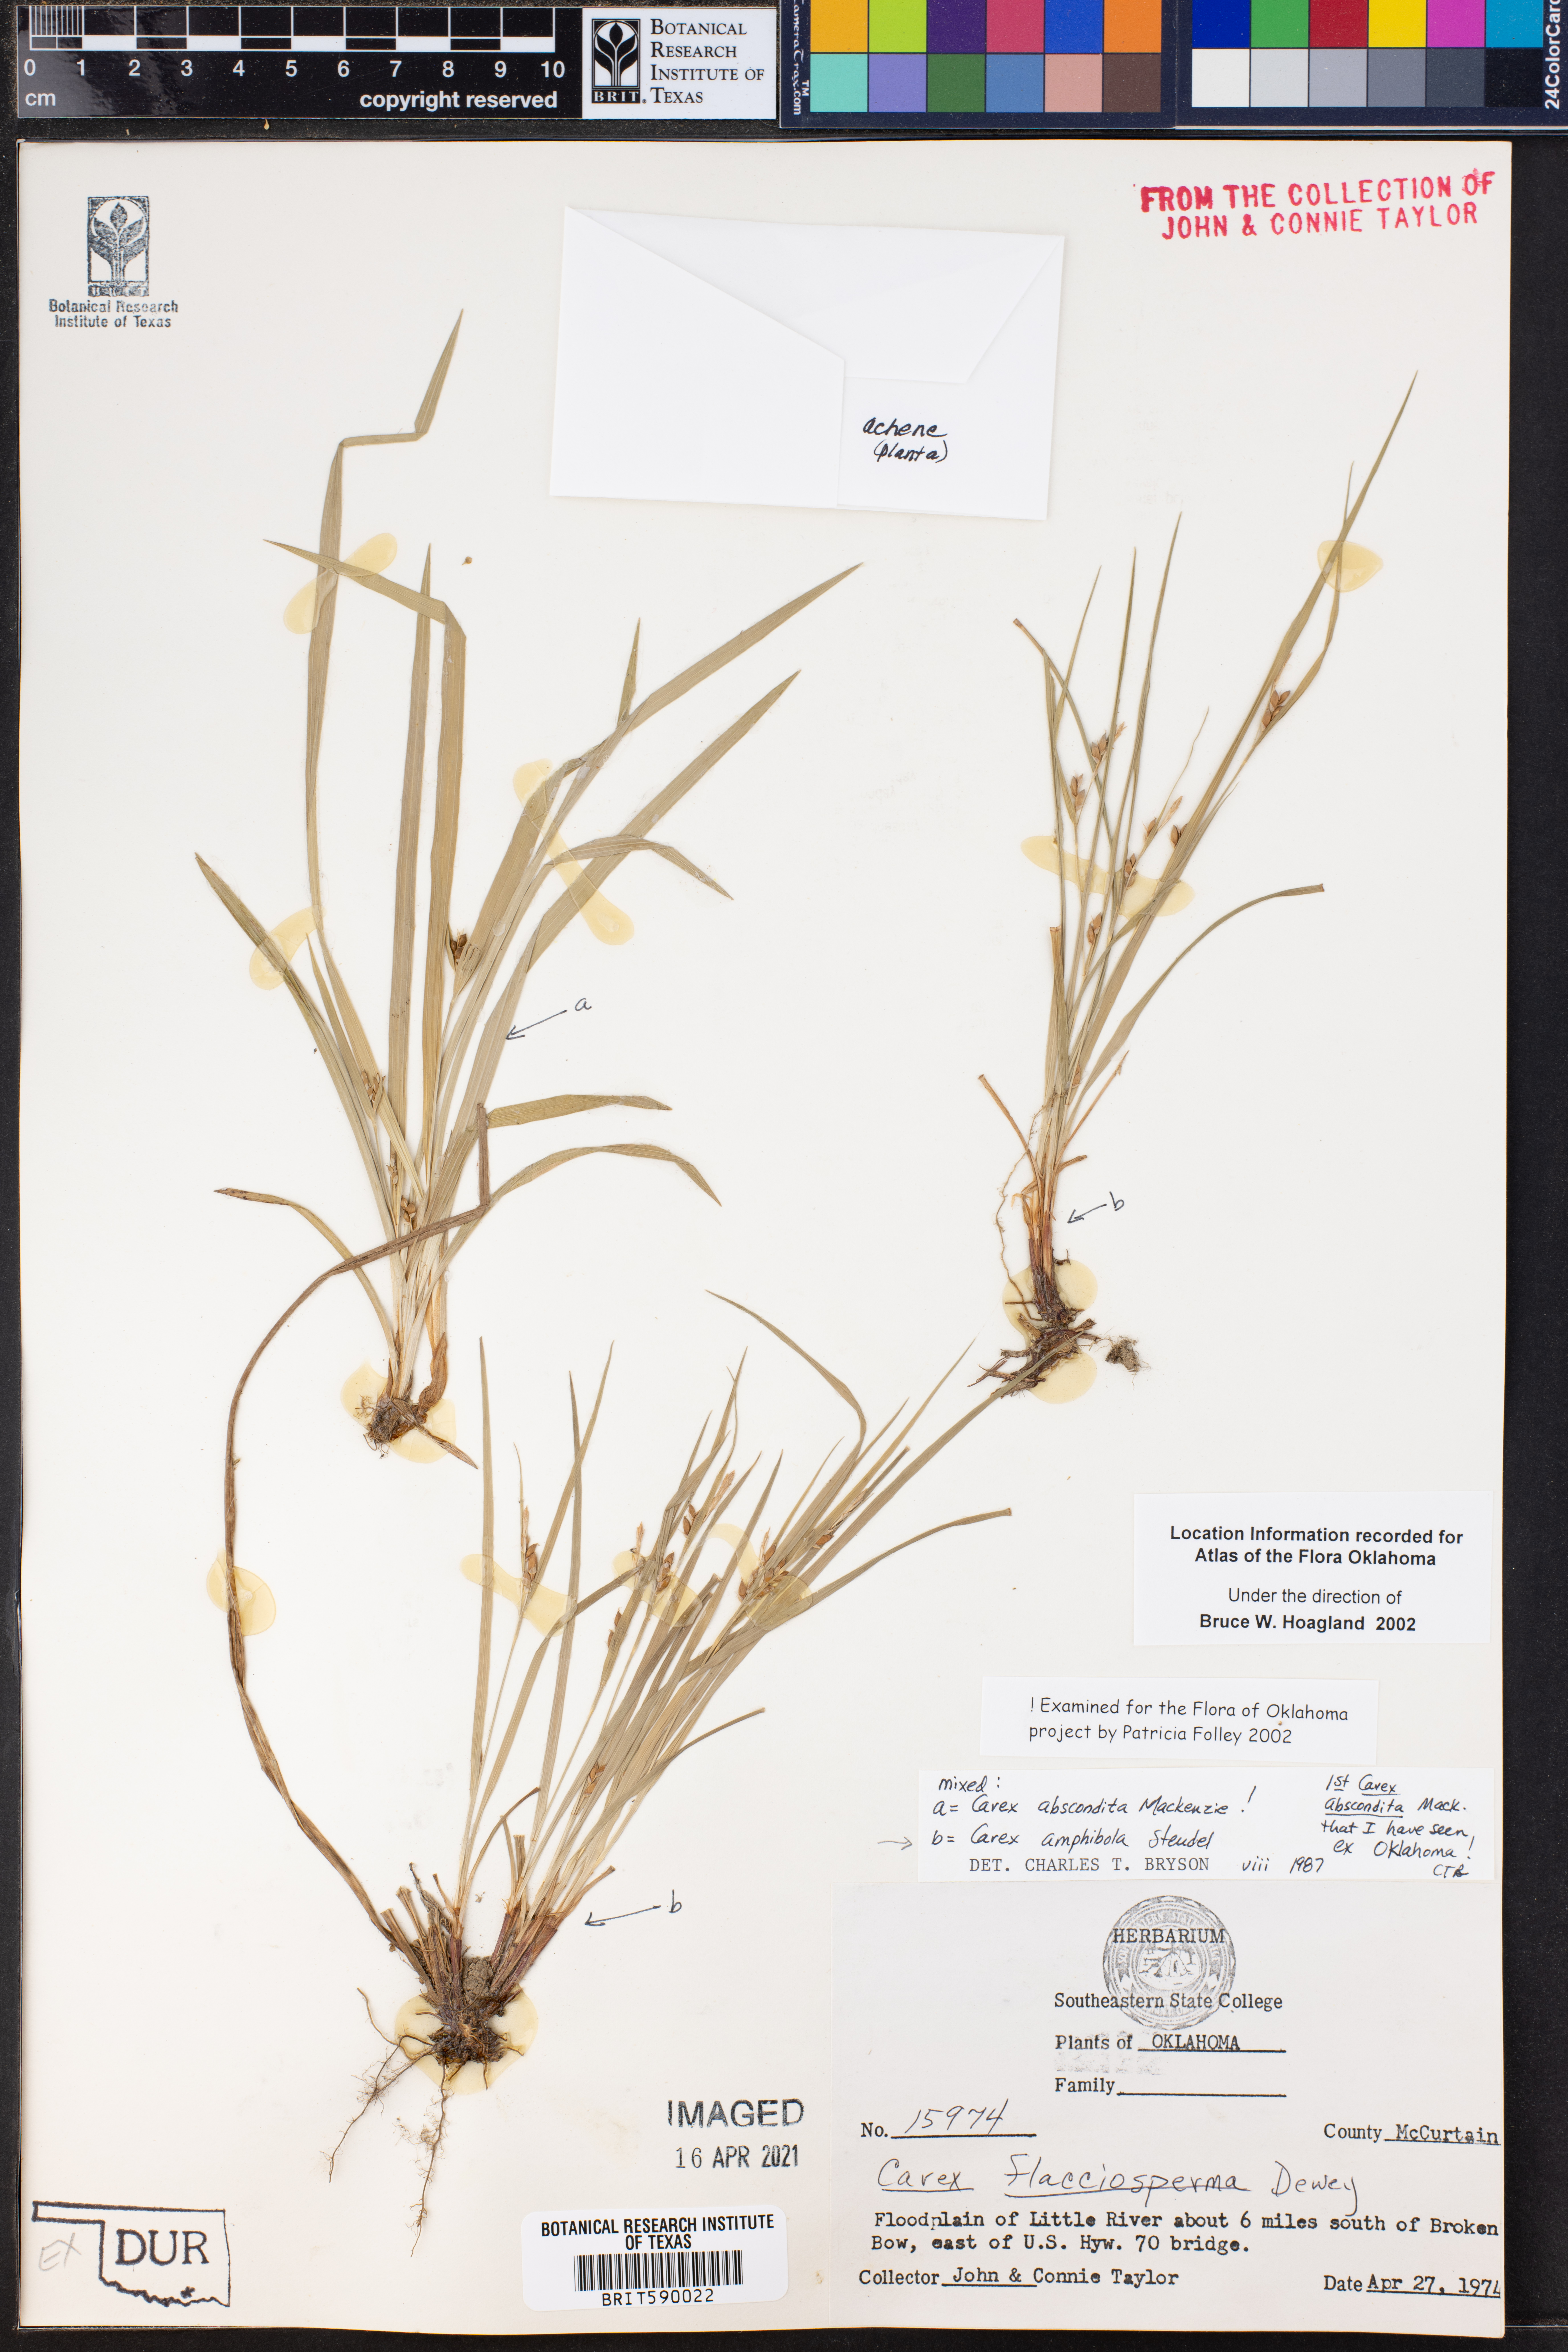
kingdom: Plantae
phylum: Tracheophyta
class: Liliopsida
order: Poales
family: Cyperaceae
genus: Carex
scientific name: Carex abscondita
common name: Thicket sedge
